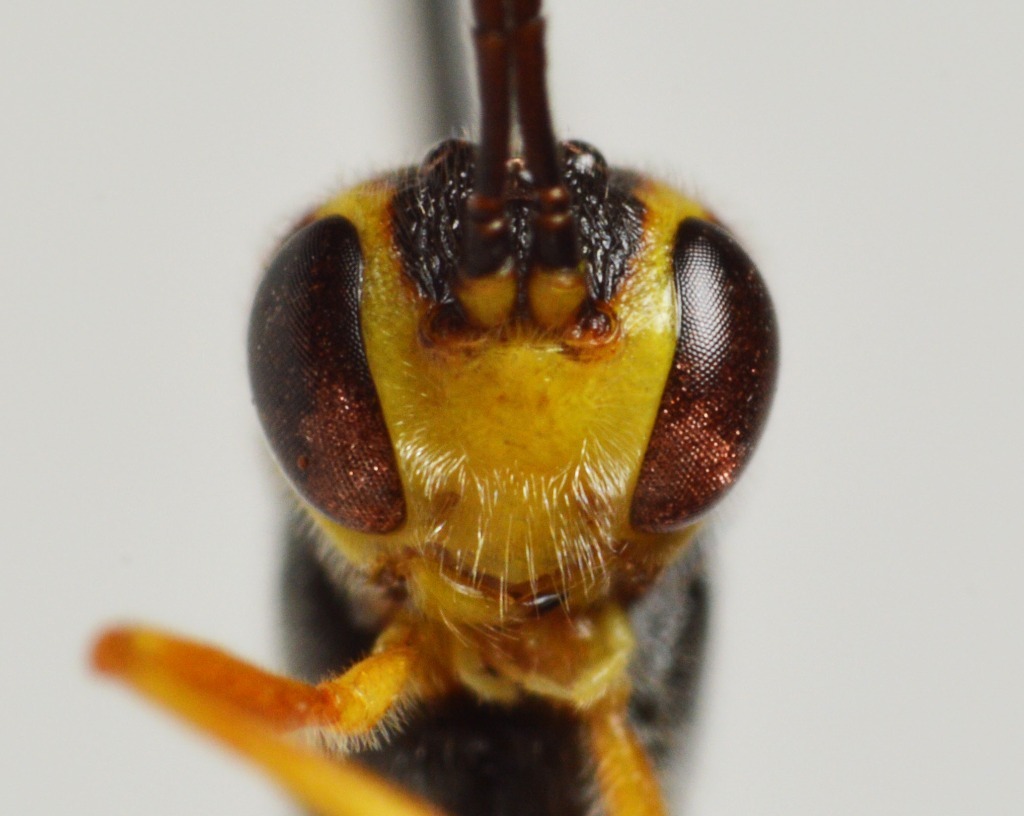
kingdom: Animalia
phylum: Arthropoda
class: Insecta
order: Hymenoptera
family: Ichneumonidae
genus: Agrypon
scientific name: Agrypon anxium
